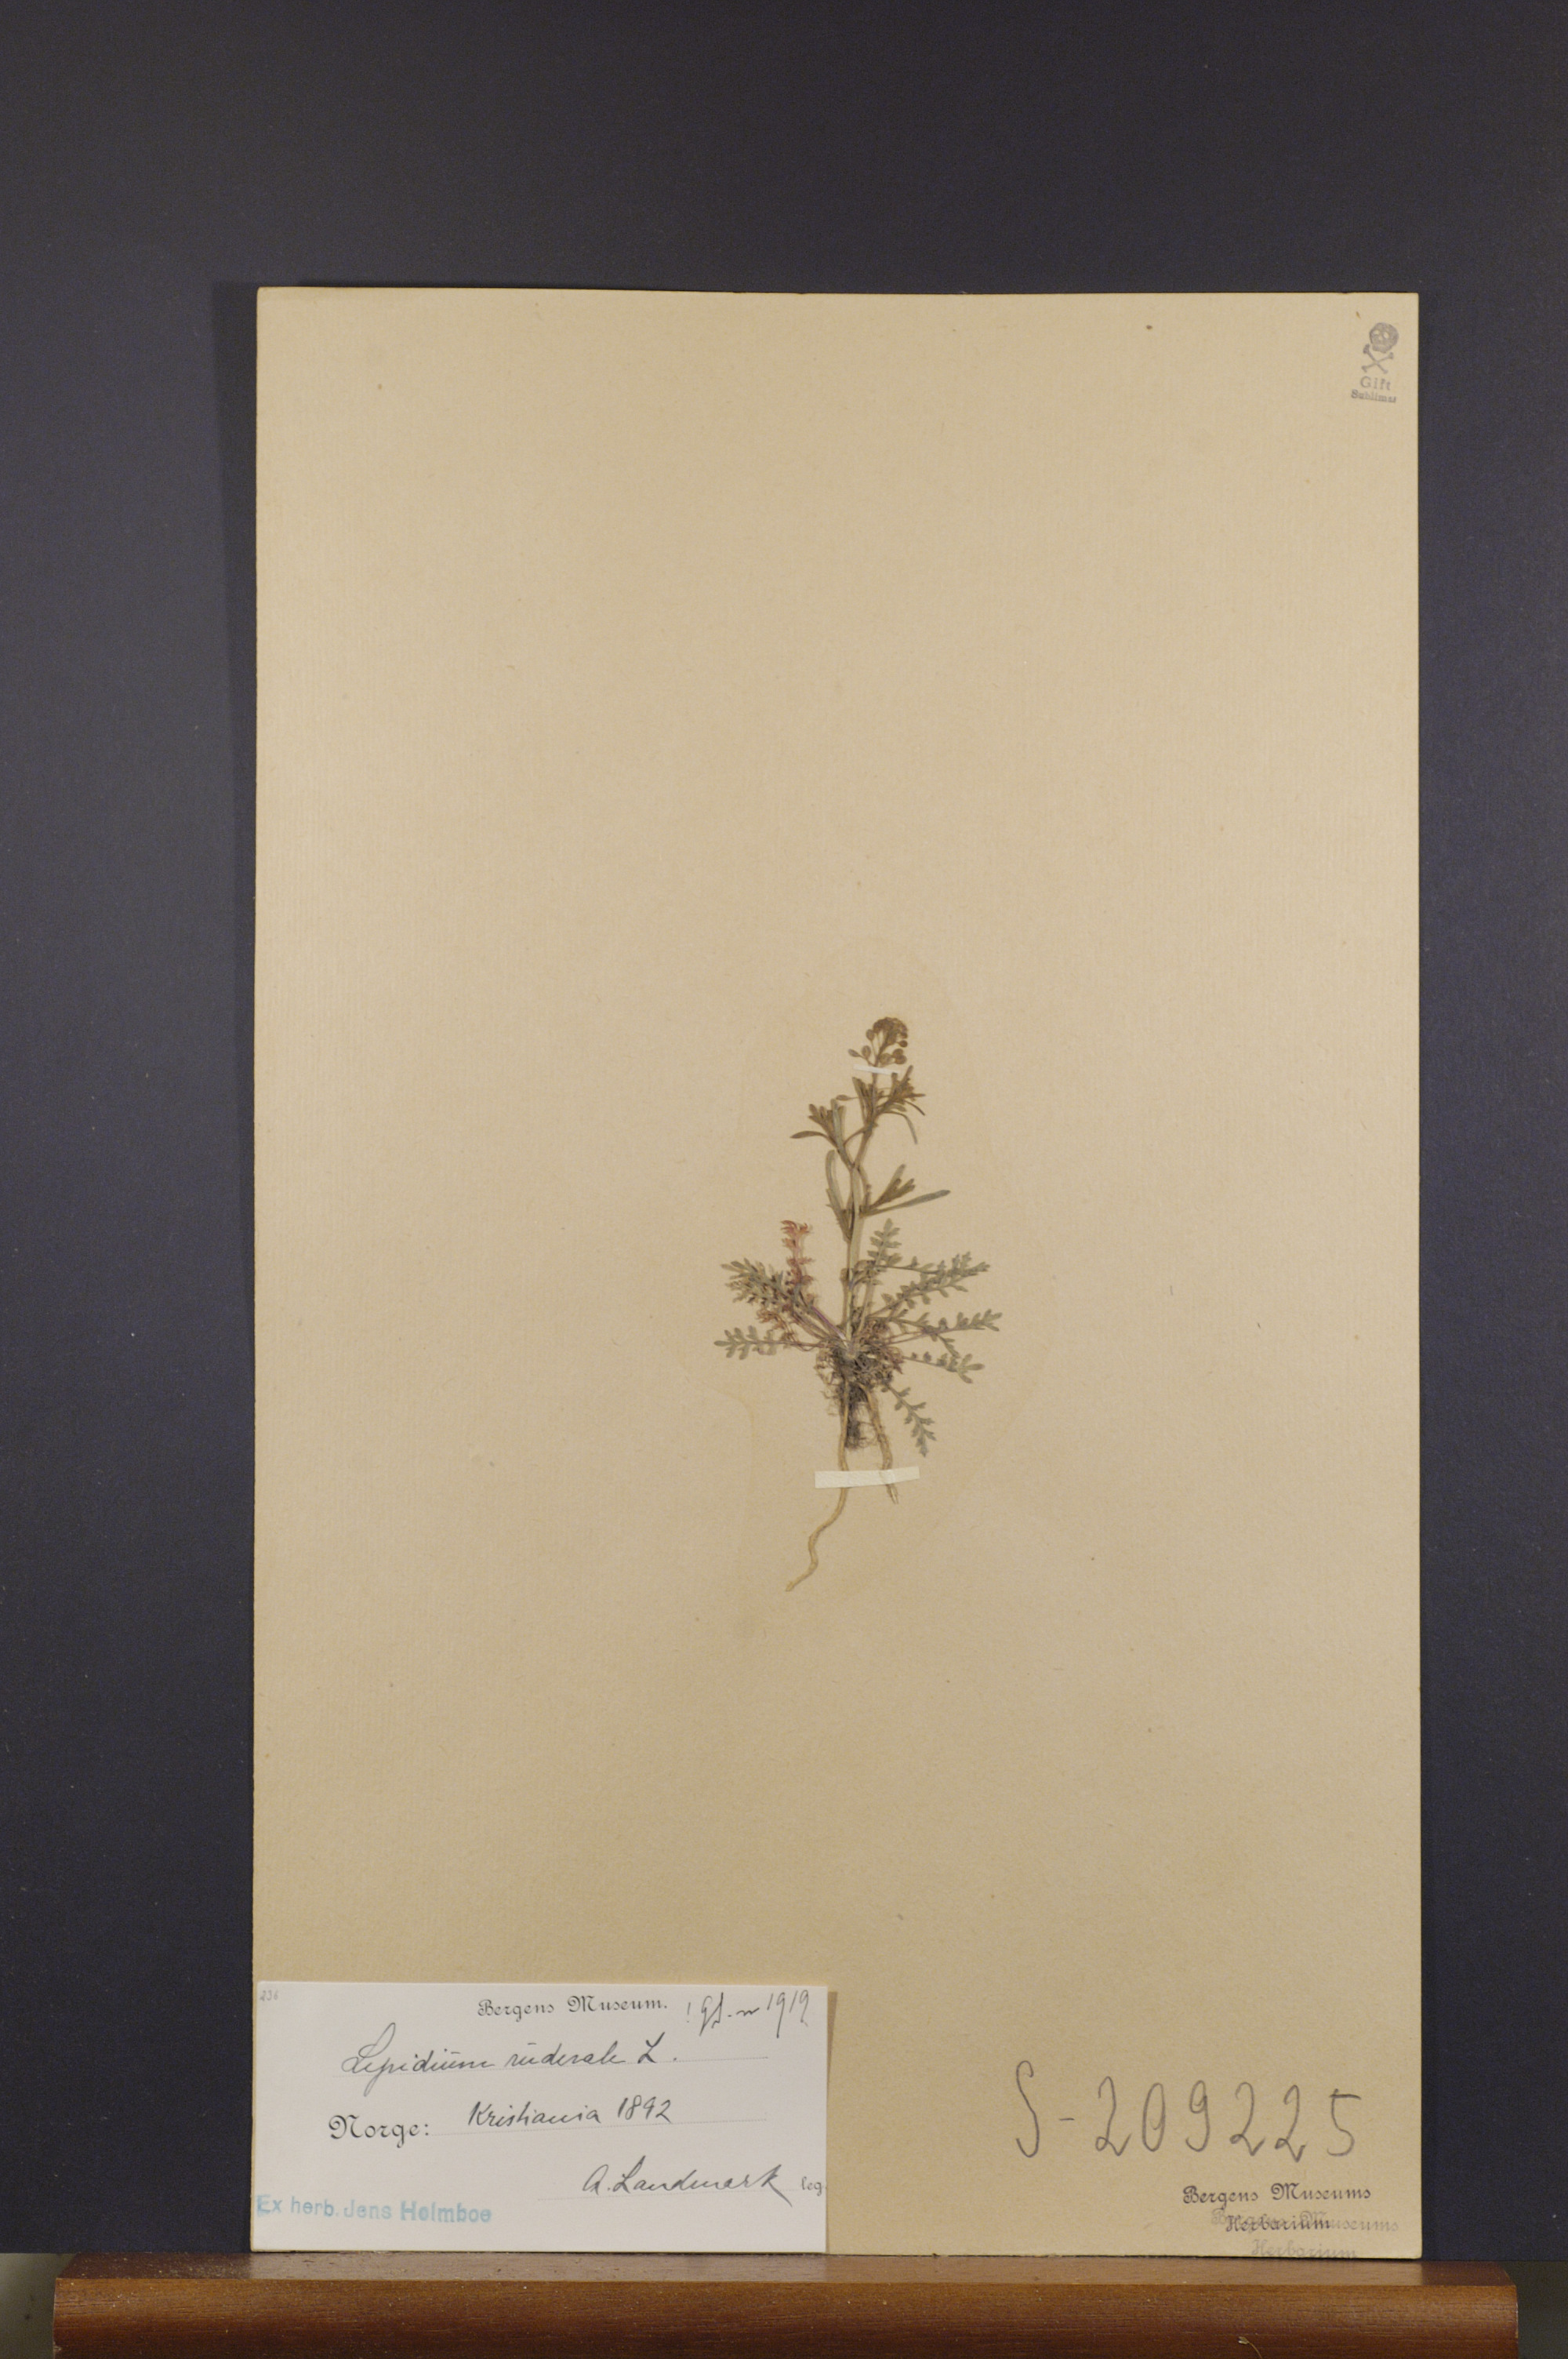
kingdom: Plantae
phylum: Tracheophyta
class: Magnoliopsida
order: Brassicales
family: Brassicaceae
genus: Lepidium
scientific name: Lepidium ruderale
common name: Narrow-leaved pepperwort
